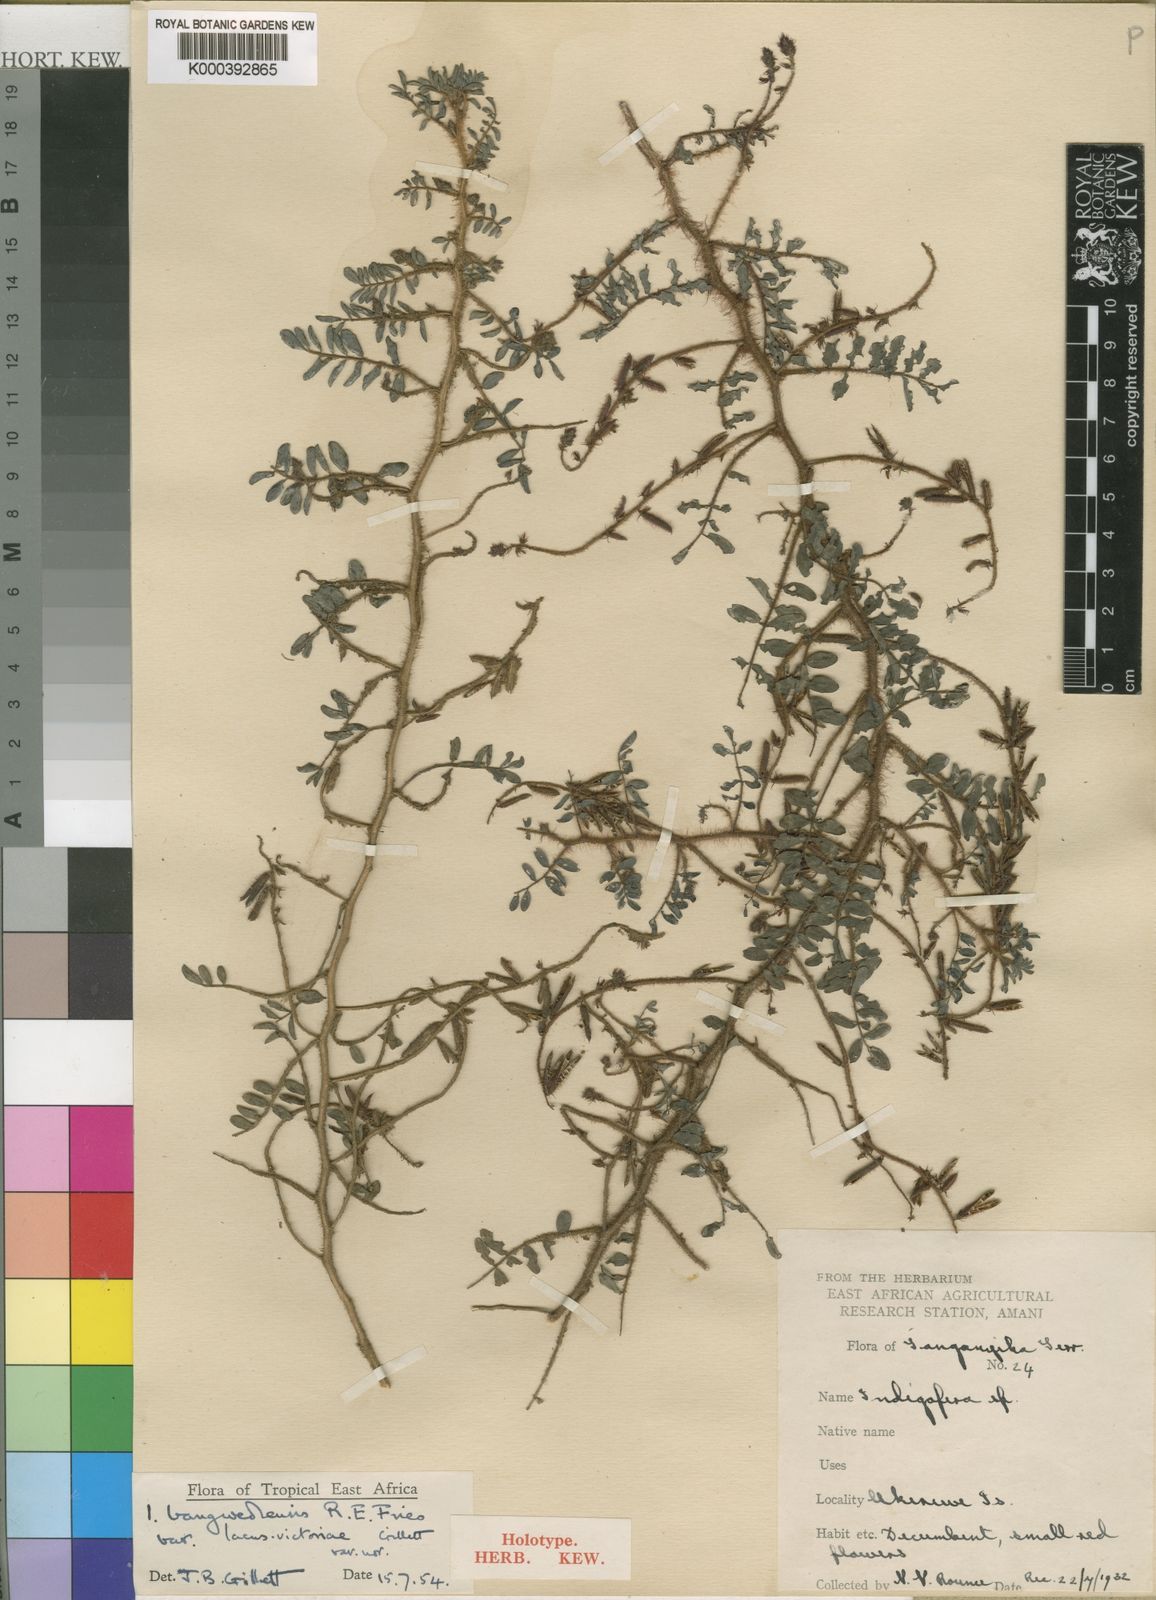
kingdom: Plantae
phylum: Tracheophyta
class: Magnoliopsida
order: Fabales
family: Fabaceae
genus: Indigofera
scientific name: Indigofera bangweolensis
